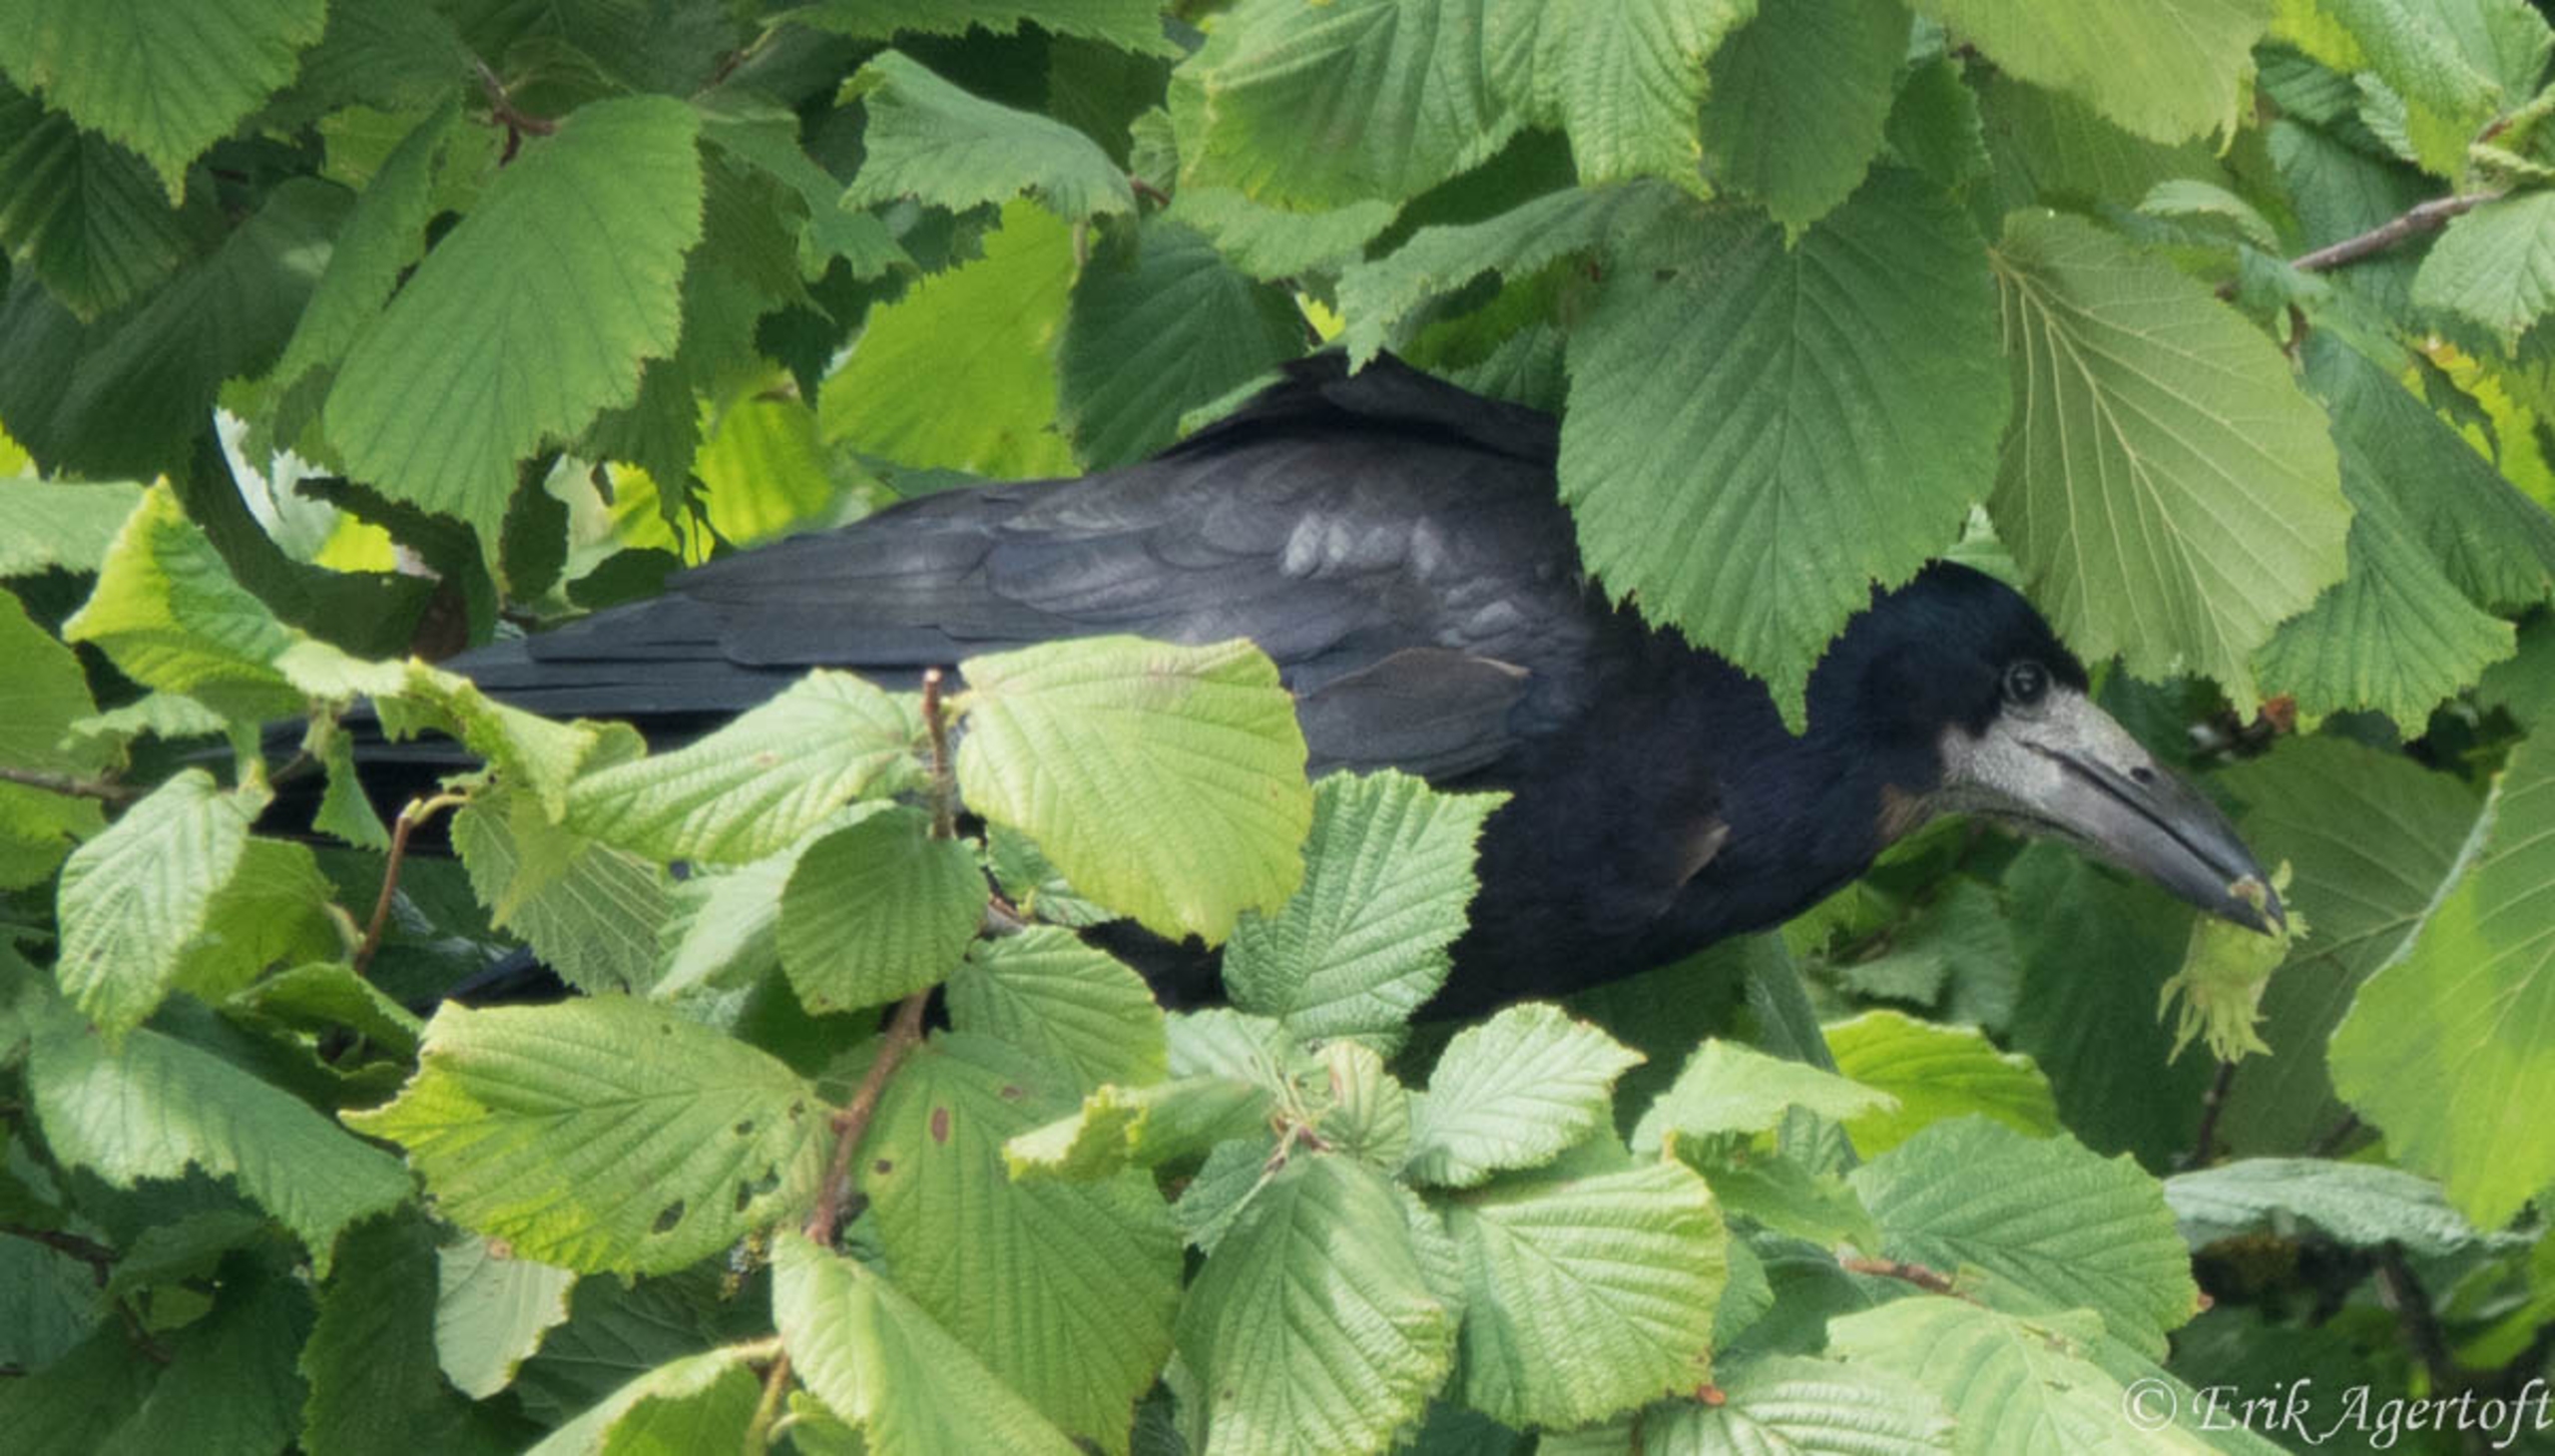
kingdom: Animalia
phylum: Chordata
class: Aves
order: Passeriformes
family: Corvidae
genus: Corvus
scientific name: Corvus frugilegus
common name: Råge
